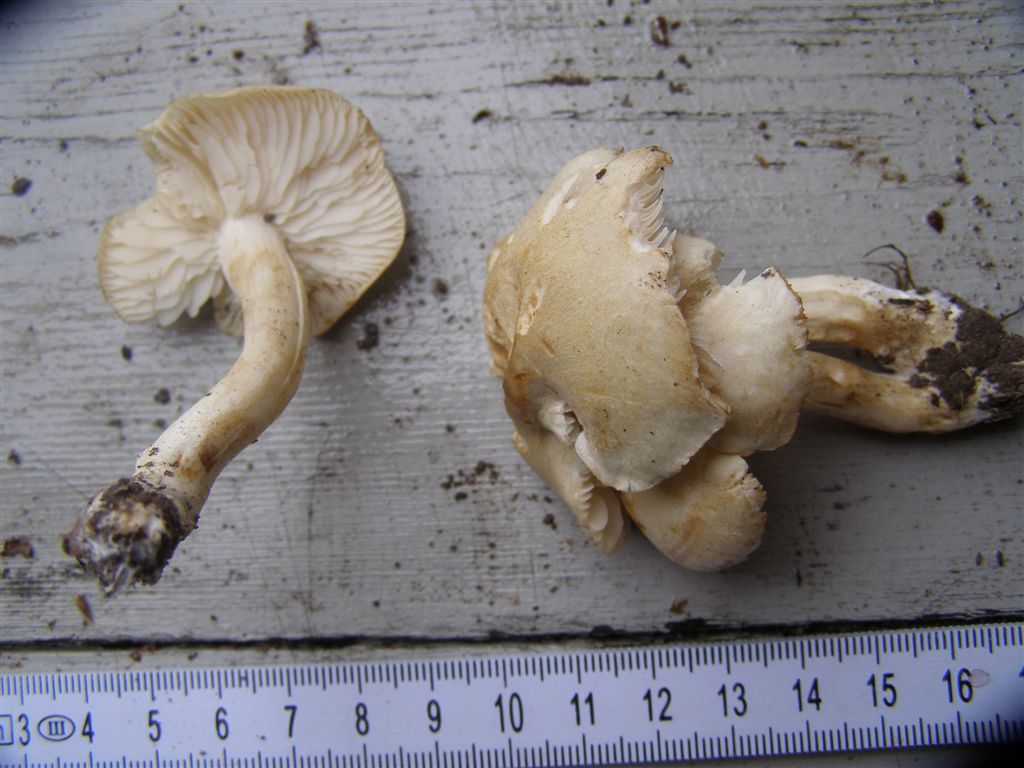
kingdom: Fungi
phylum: Basidiomycota
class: Agaricomycetes
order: Agaricales
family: Tricholomataceae
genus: Tricholoma
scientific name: Tricholoma lascivum
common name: stinkende ridderhat
